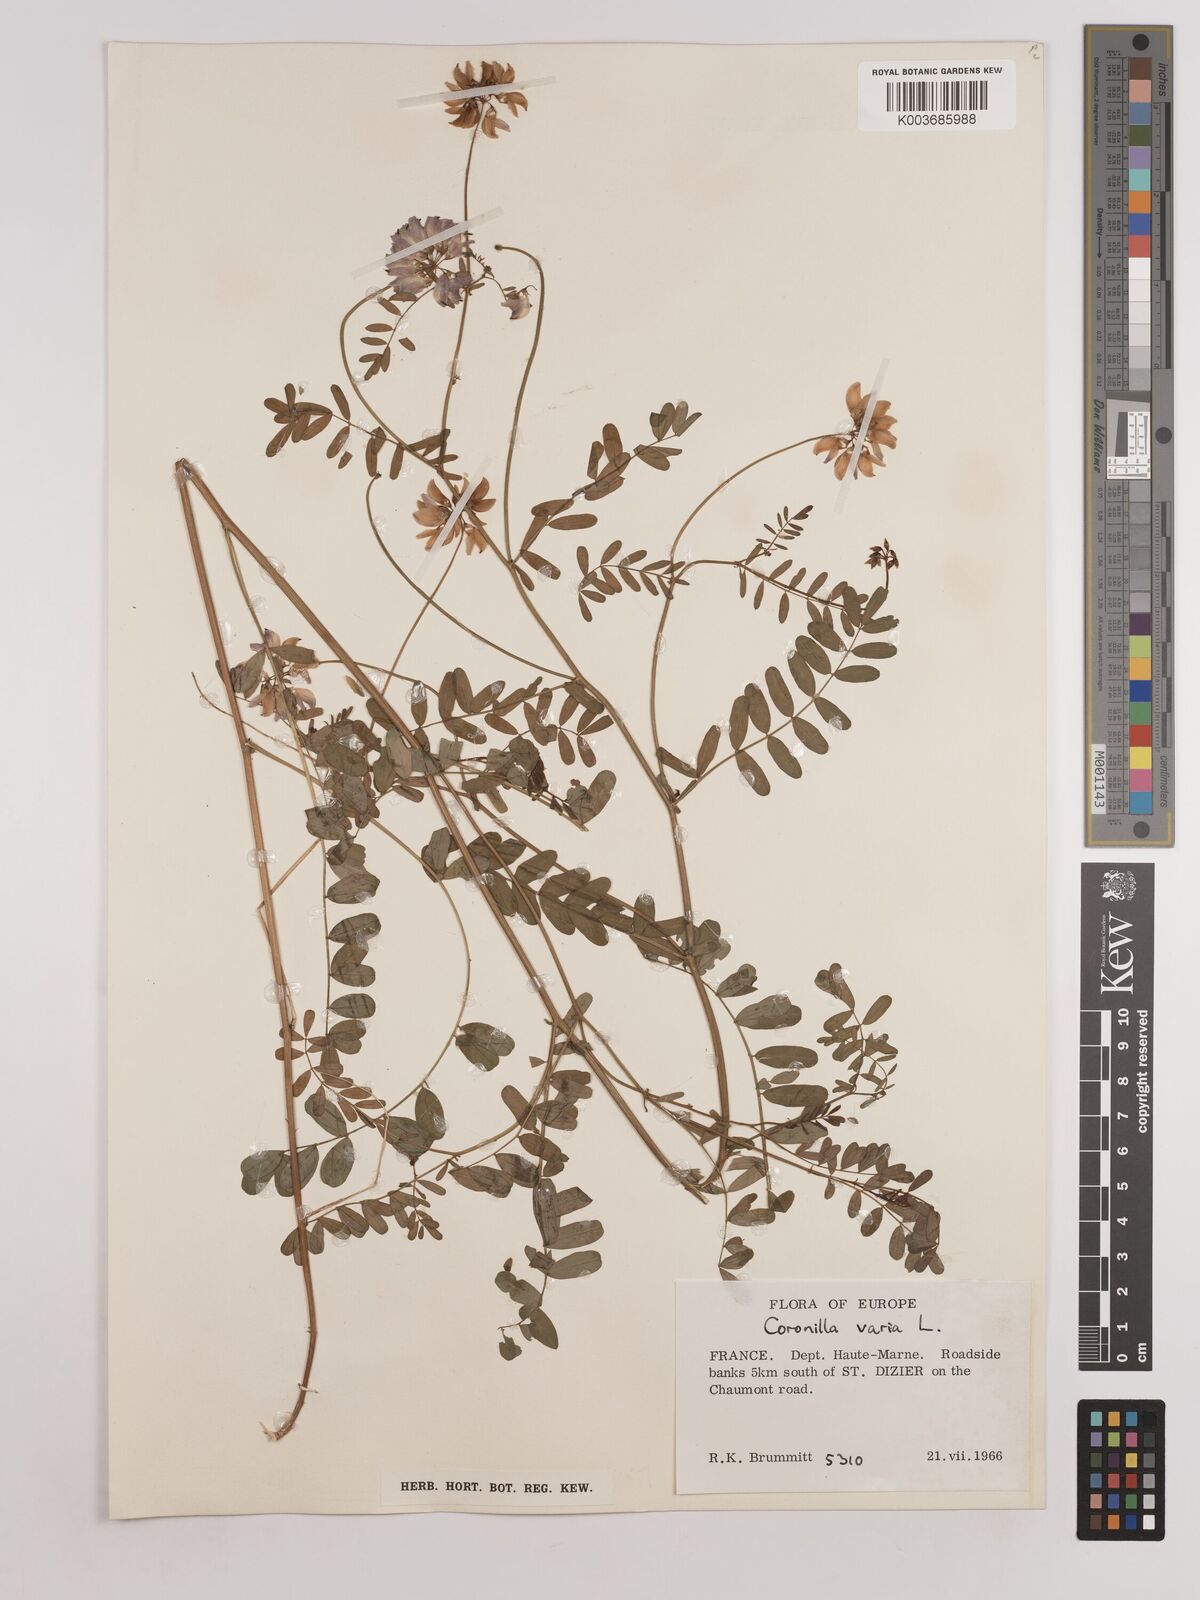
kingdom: Plantae
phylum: Tracheophyta
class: Magnoliopsida
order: Fabales
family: Fabaceae
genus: Coronilla
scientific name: Coronilla varia
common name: Crownvetch
